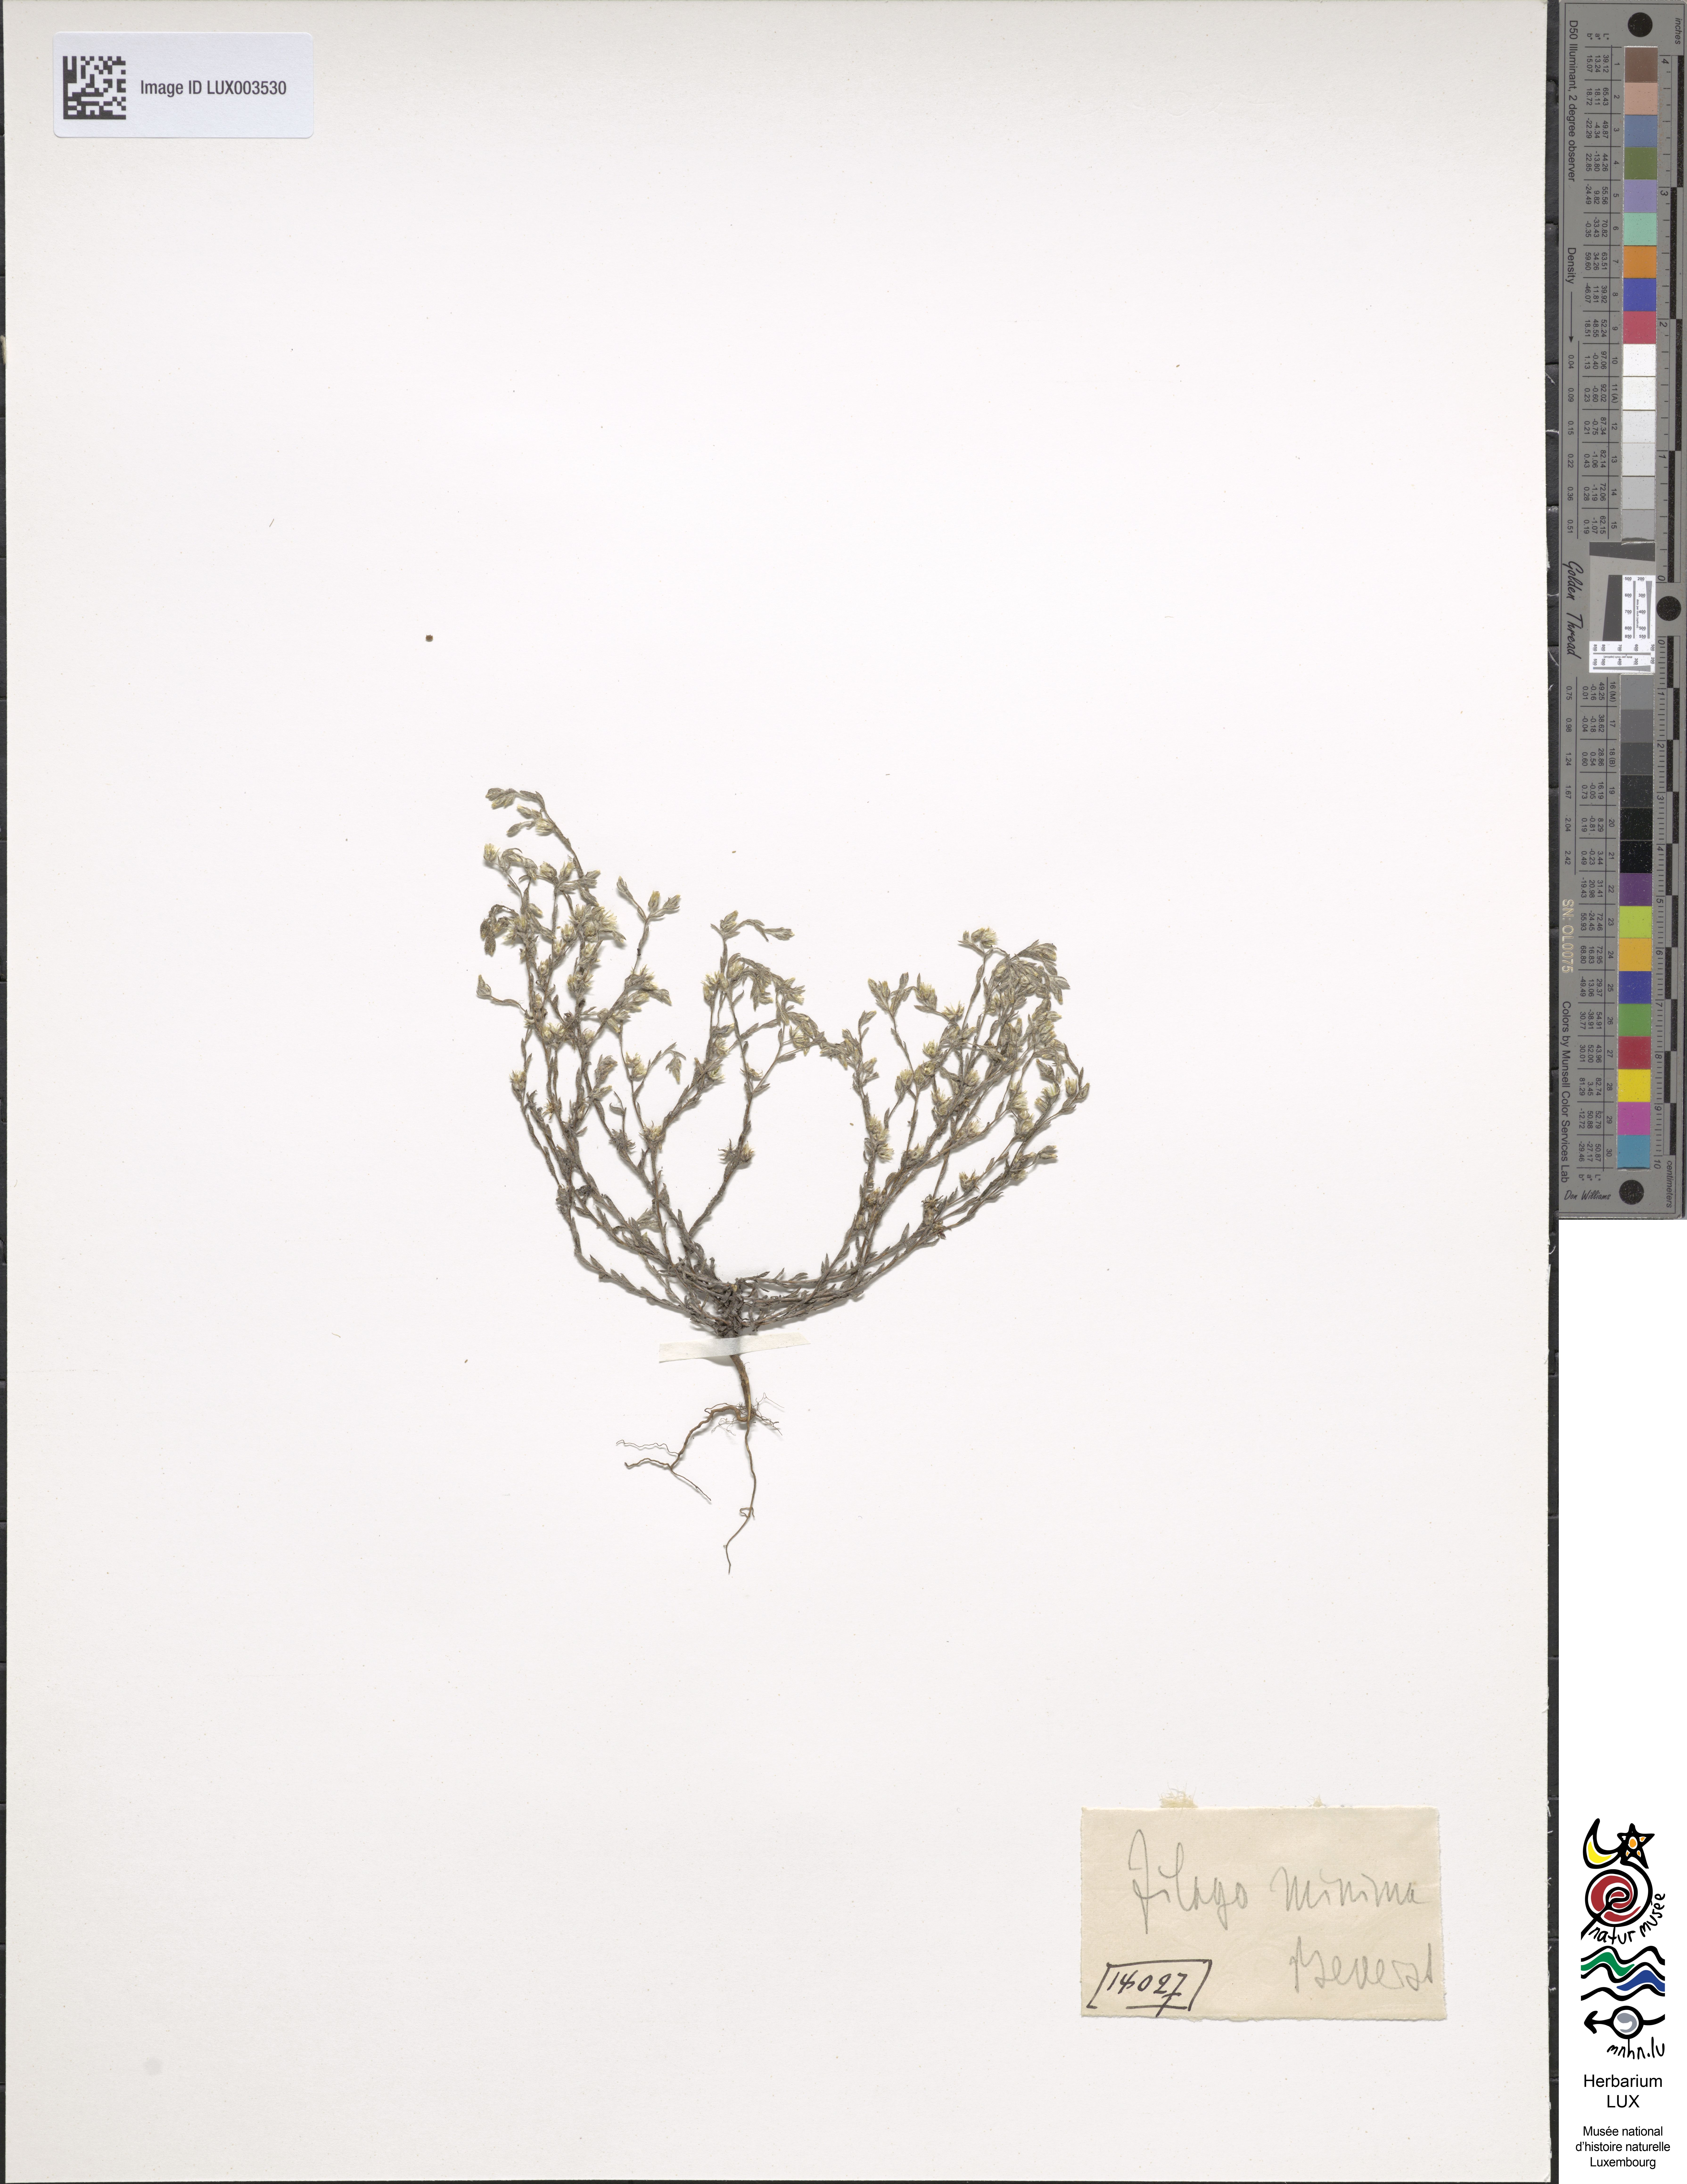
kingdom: Plantae
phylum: Tracheophyta
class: Magnoliopsida
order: Asterales
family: Asteraceae
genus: Logfia
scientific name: Logfia minima
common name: Little cottonrose
